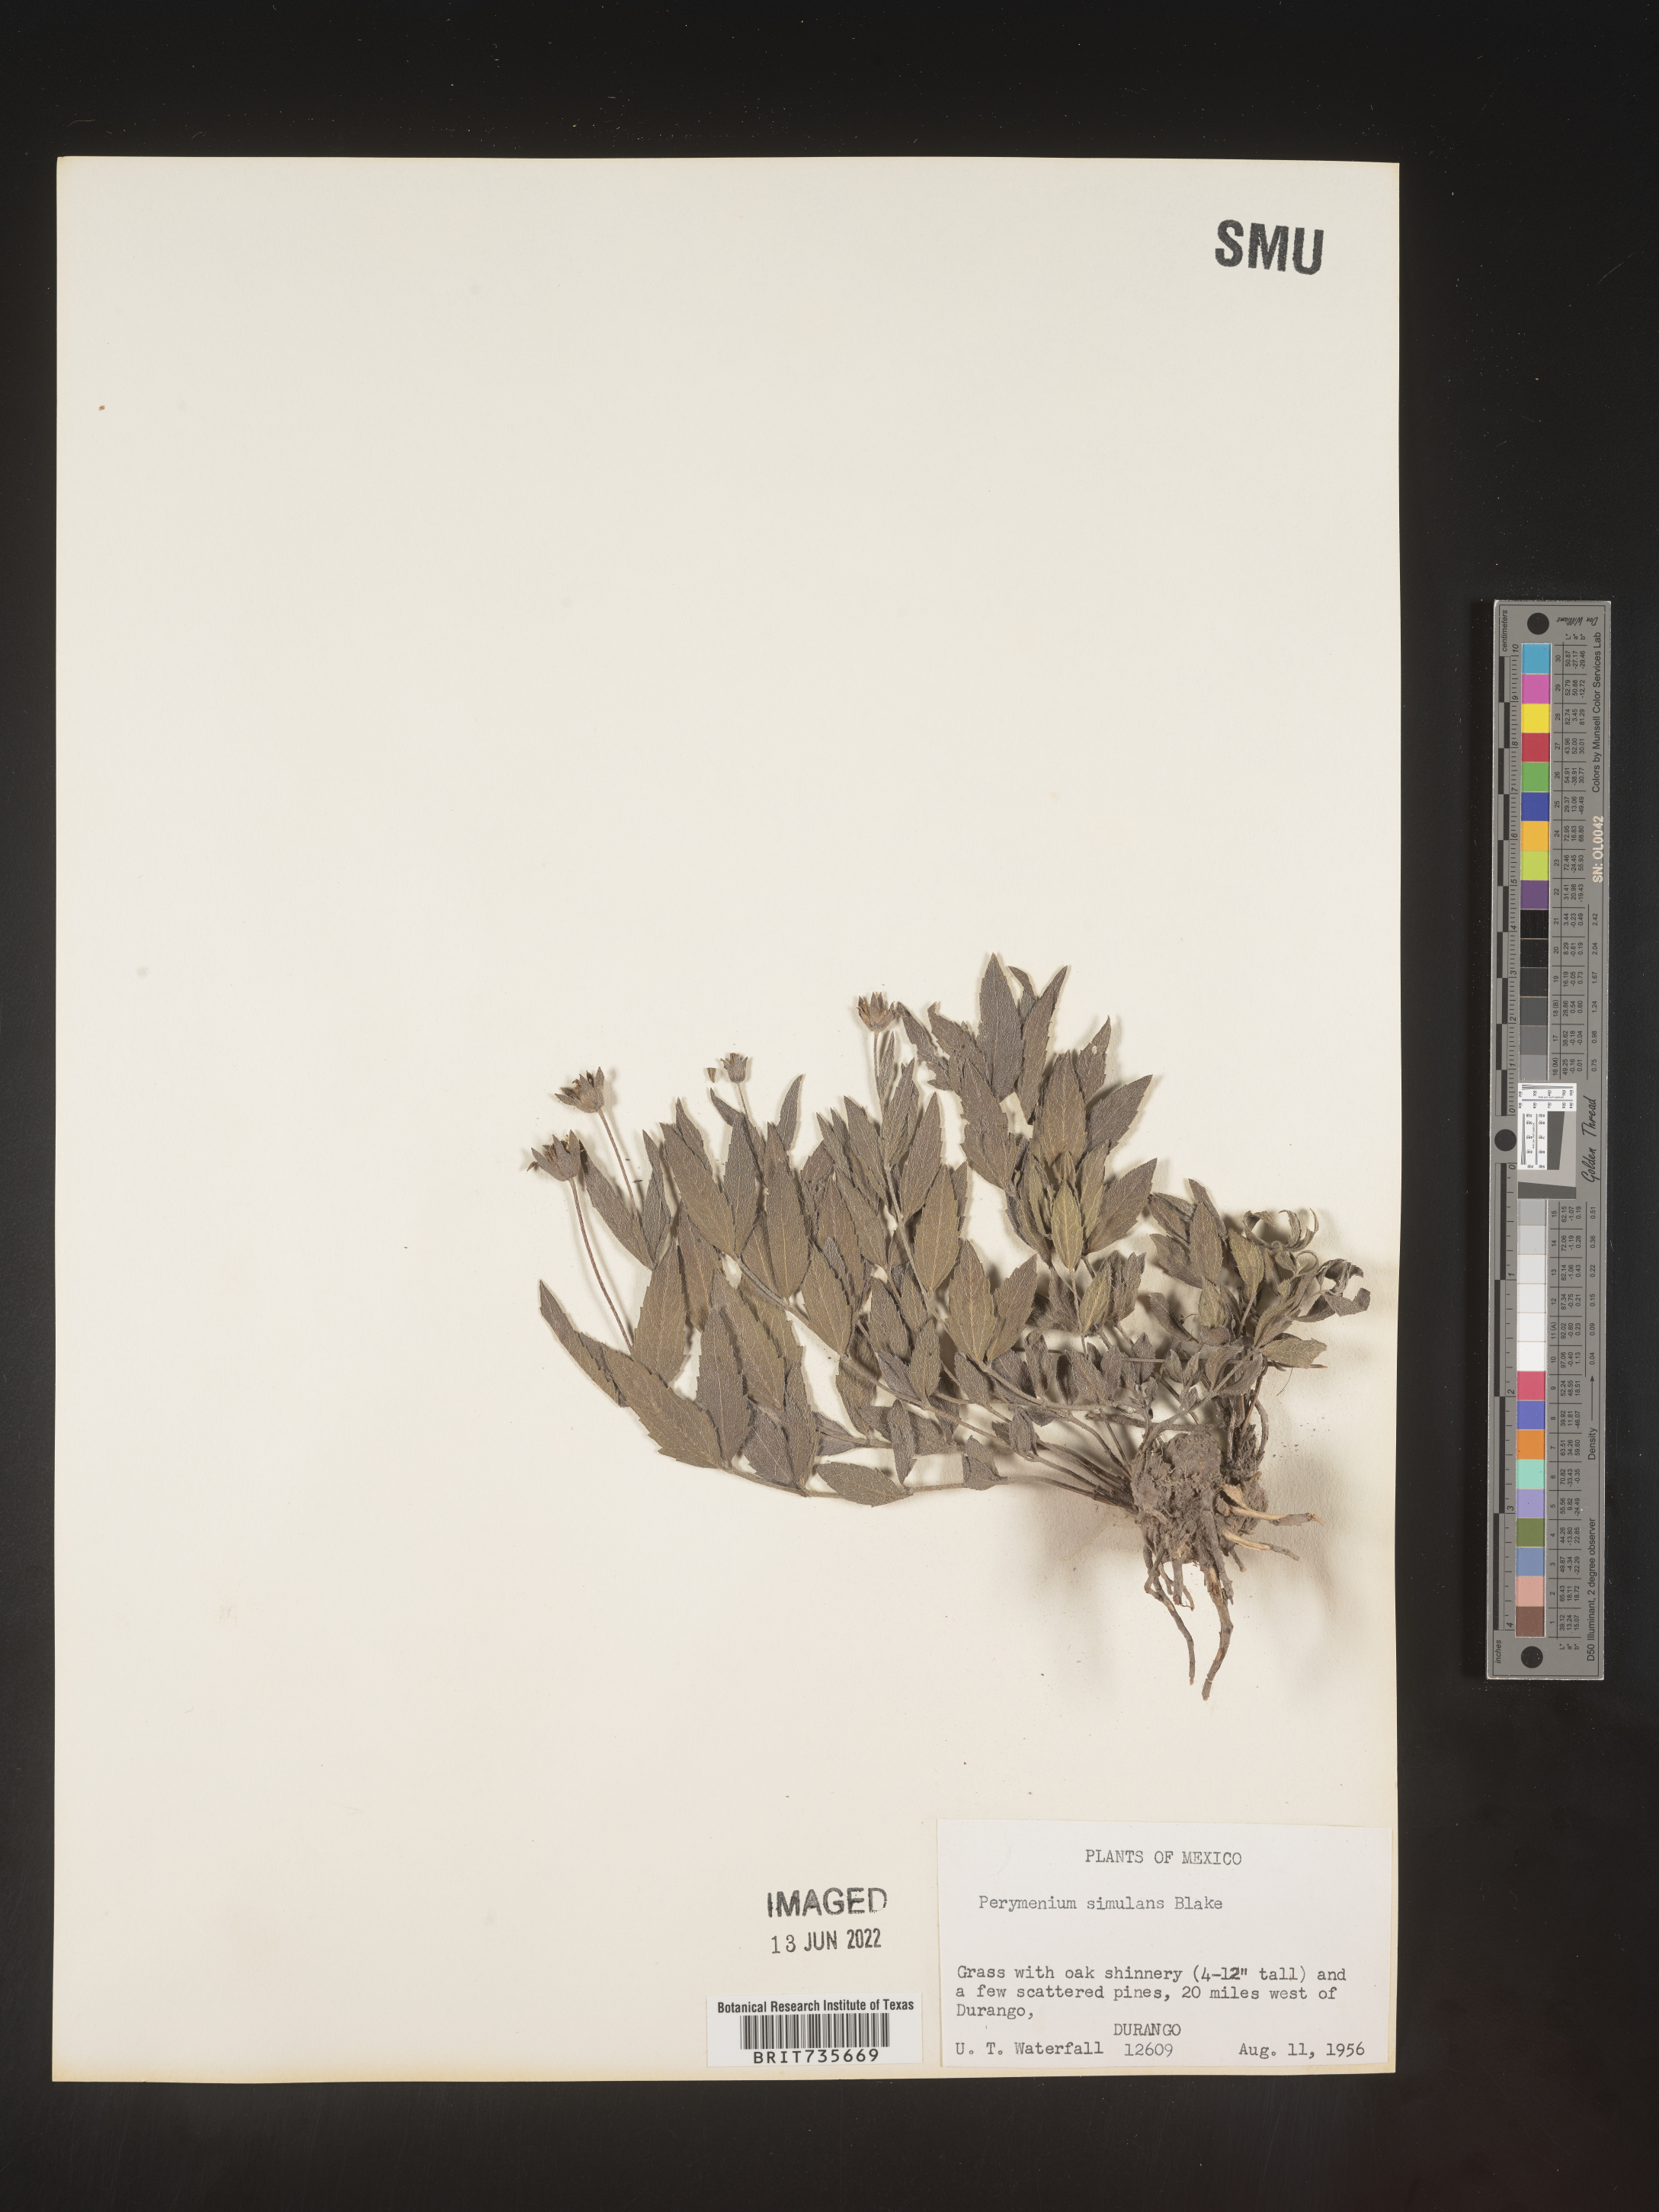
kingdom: Plantae
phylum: Tracheophyta
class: Magnoliopsida
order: Asterales
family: Asteraceae
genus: Perymenium
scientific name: Perymenium
